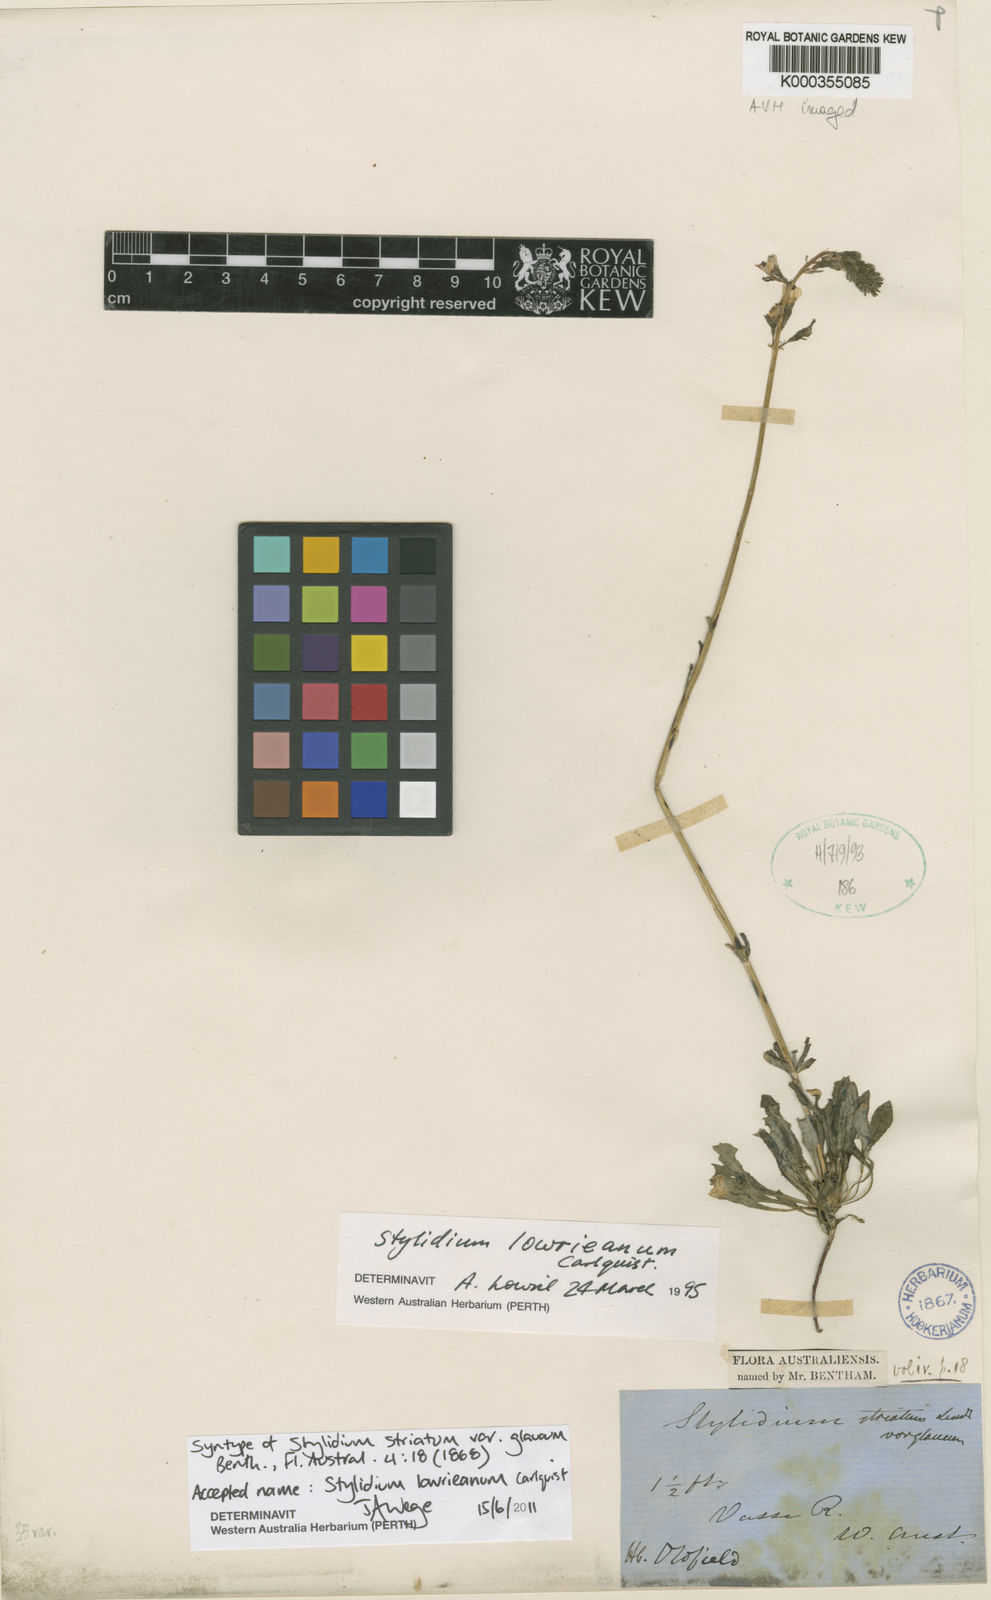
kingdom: Plantae
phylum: Tracheophyta
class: Magnoliopsida
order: Asterales
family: Stylidiaceae
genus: Stylidium
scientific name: Stylidium lowrieanum
